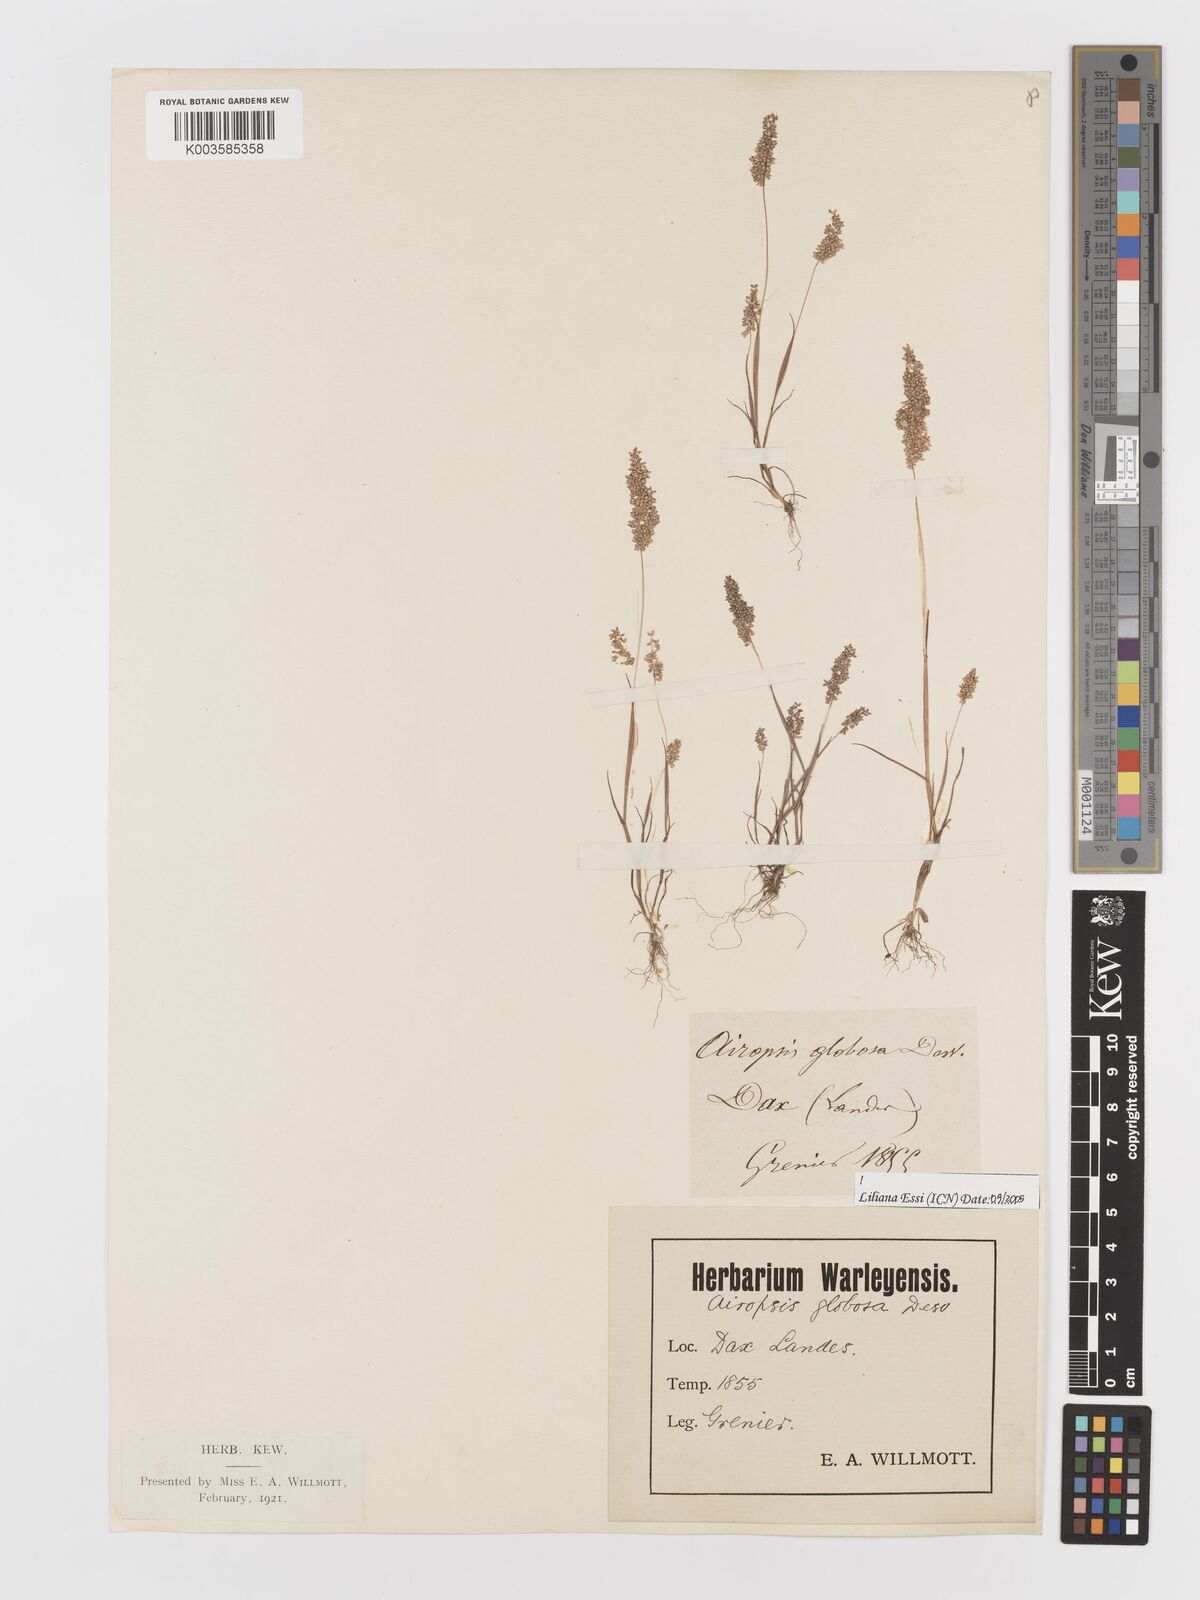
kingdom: Plantae
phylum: Tracheophyta
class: Liliopsida
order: Poales
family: Poaceae
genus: Airopsis
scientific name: Airopsis tenella
